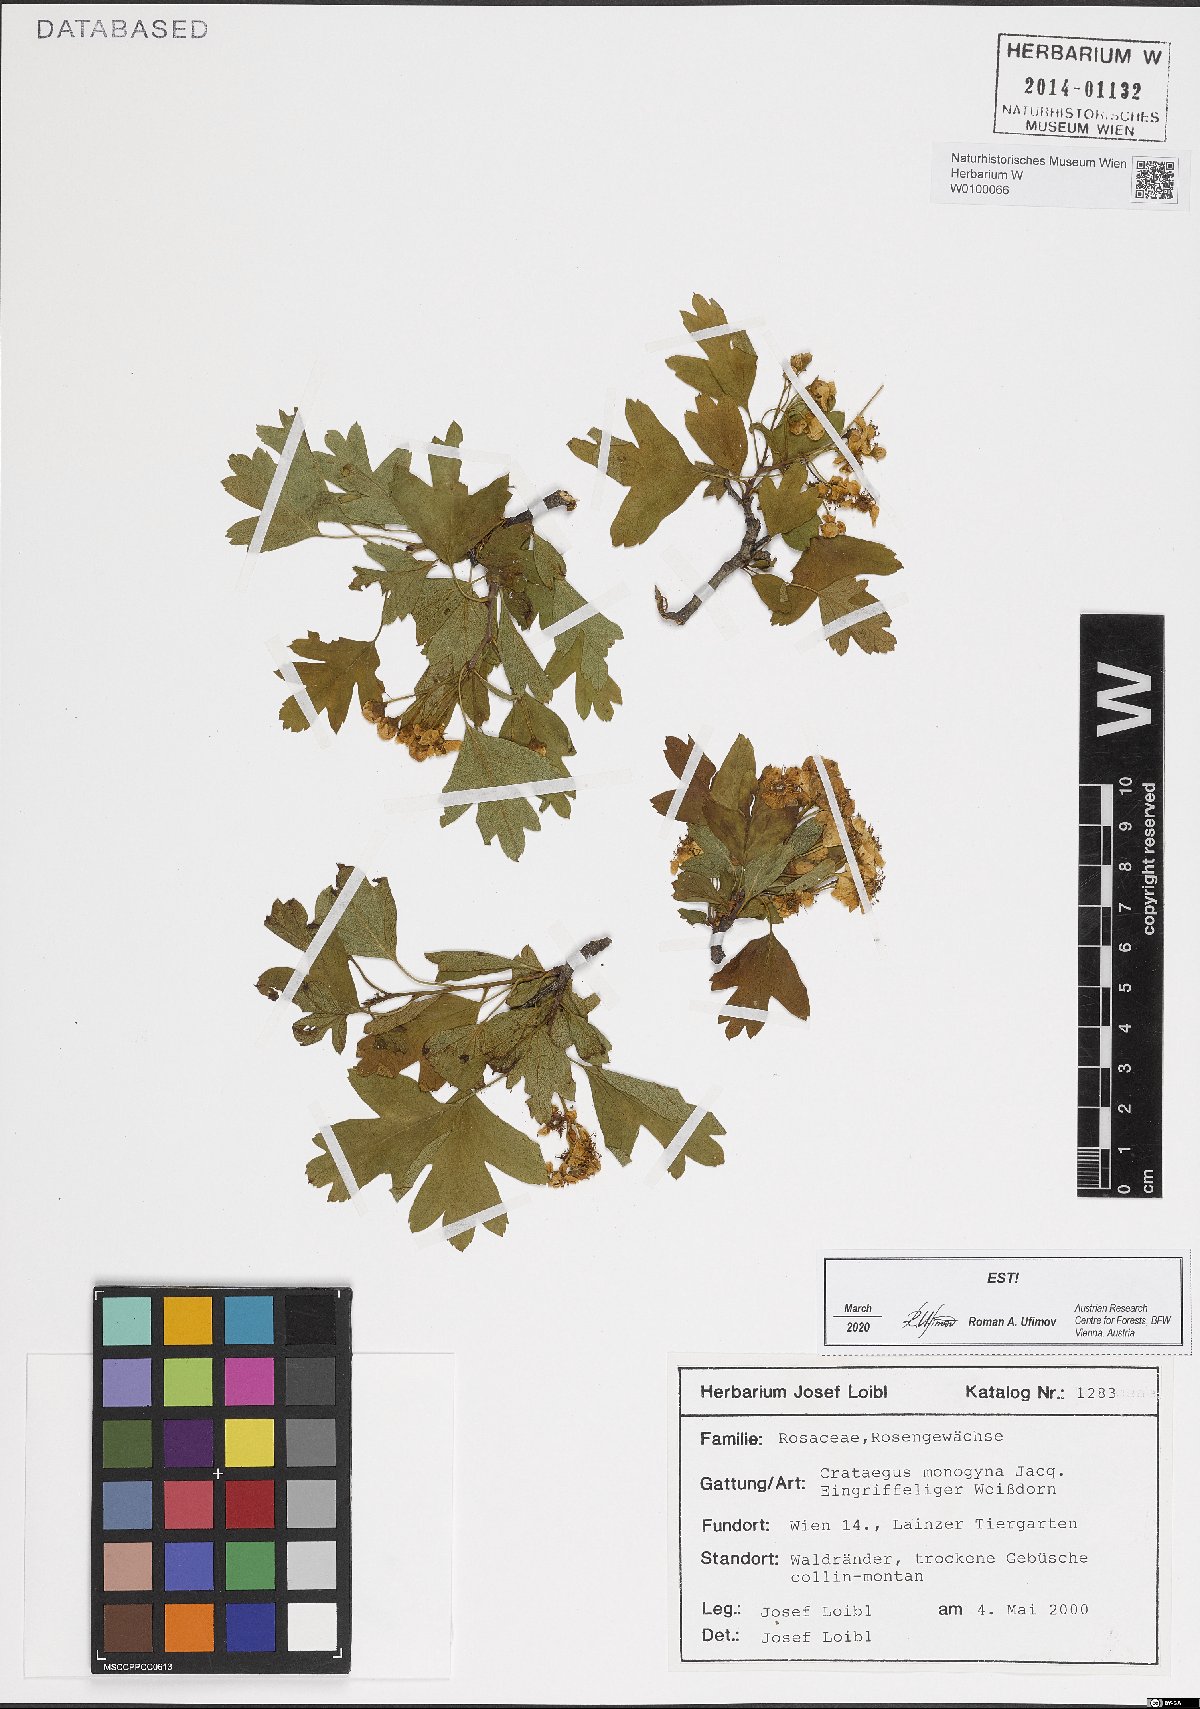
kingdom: Plantae
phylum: Tracheophyta
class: Magnoliopsida
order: Rosales
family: Rosaceae
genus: Crataegus
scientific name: Crataegus monogyna
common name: Hawthorn
